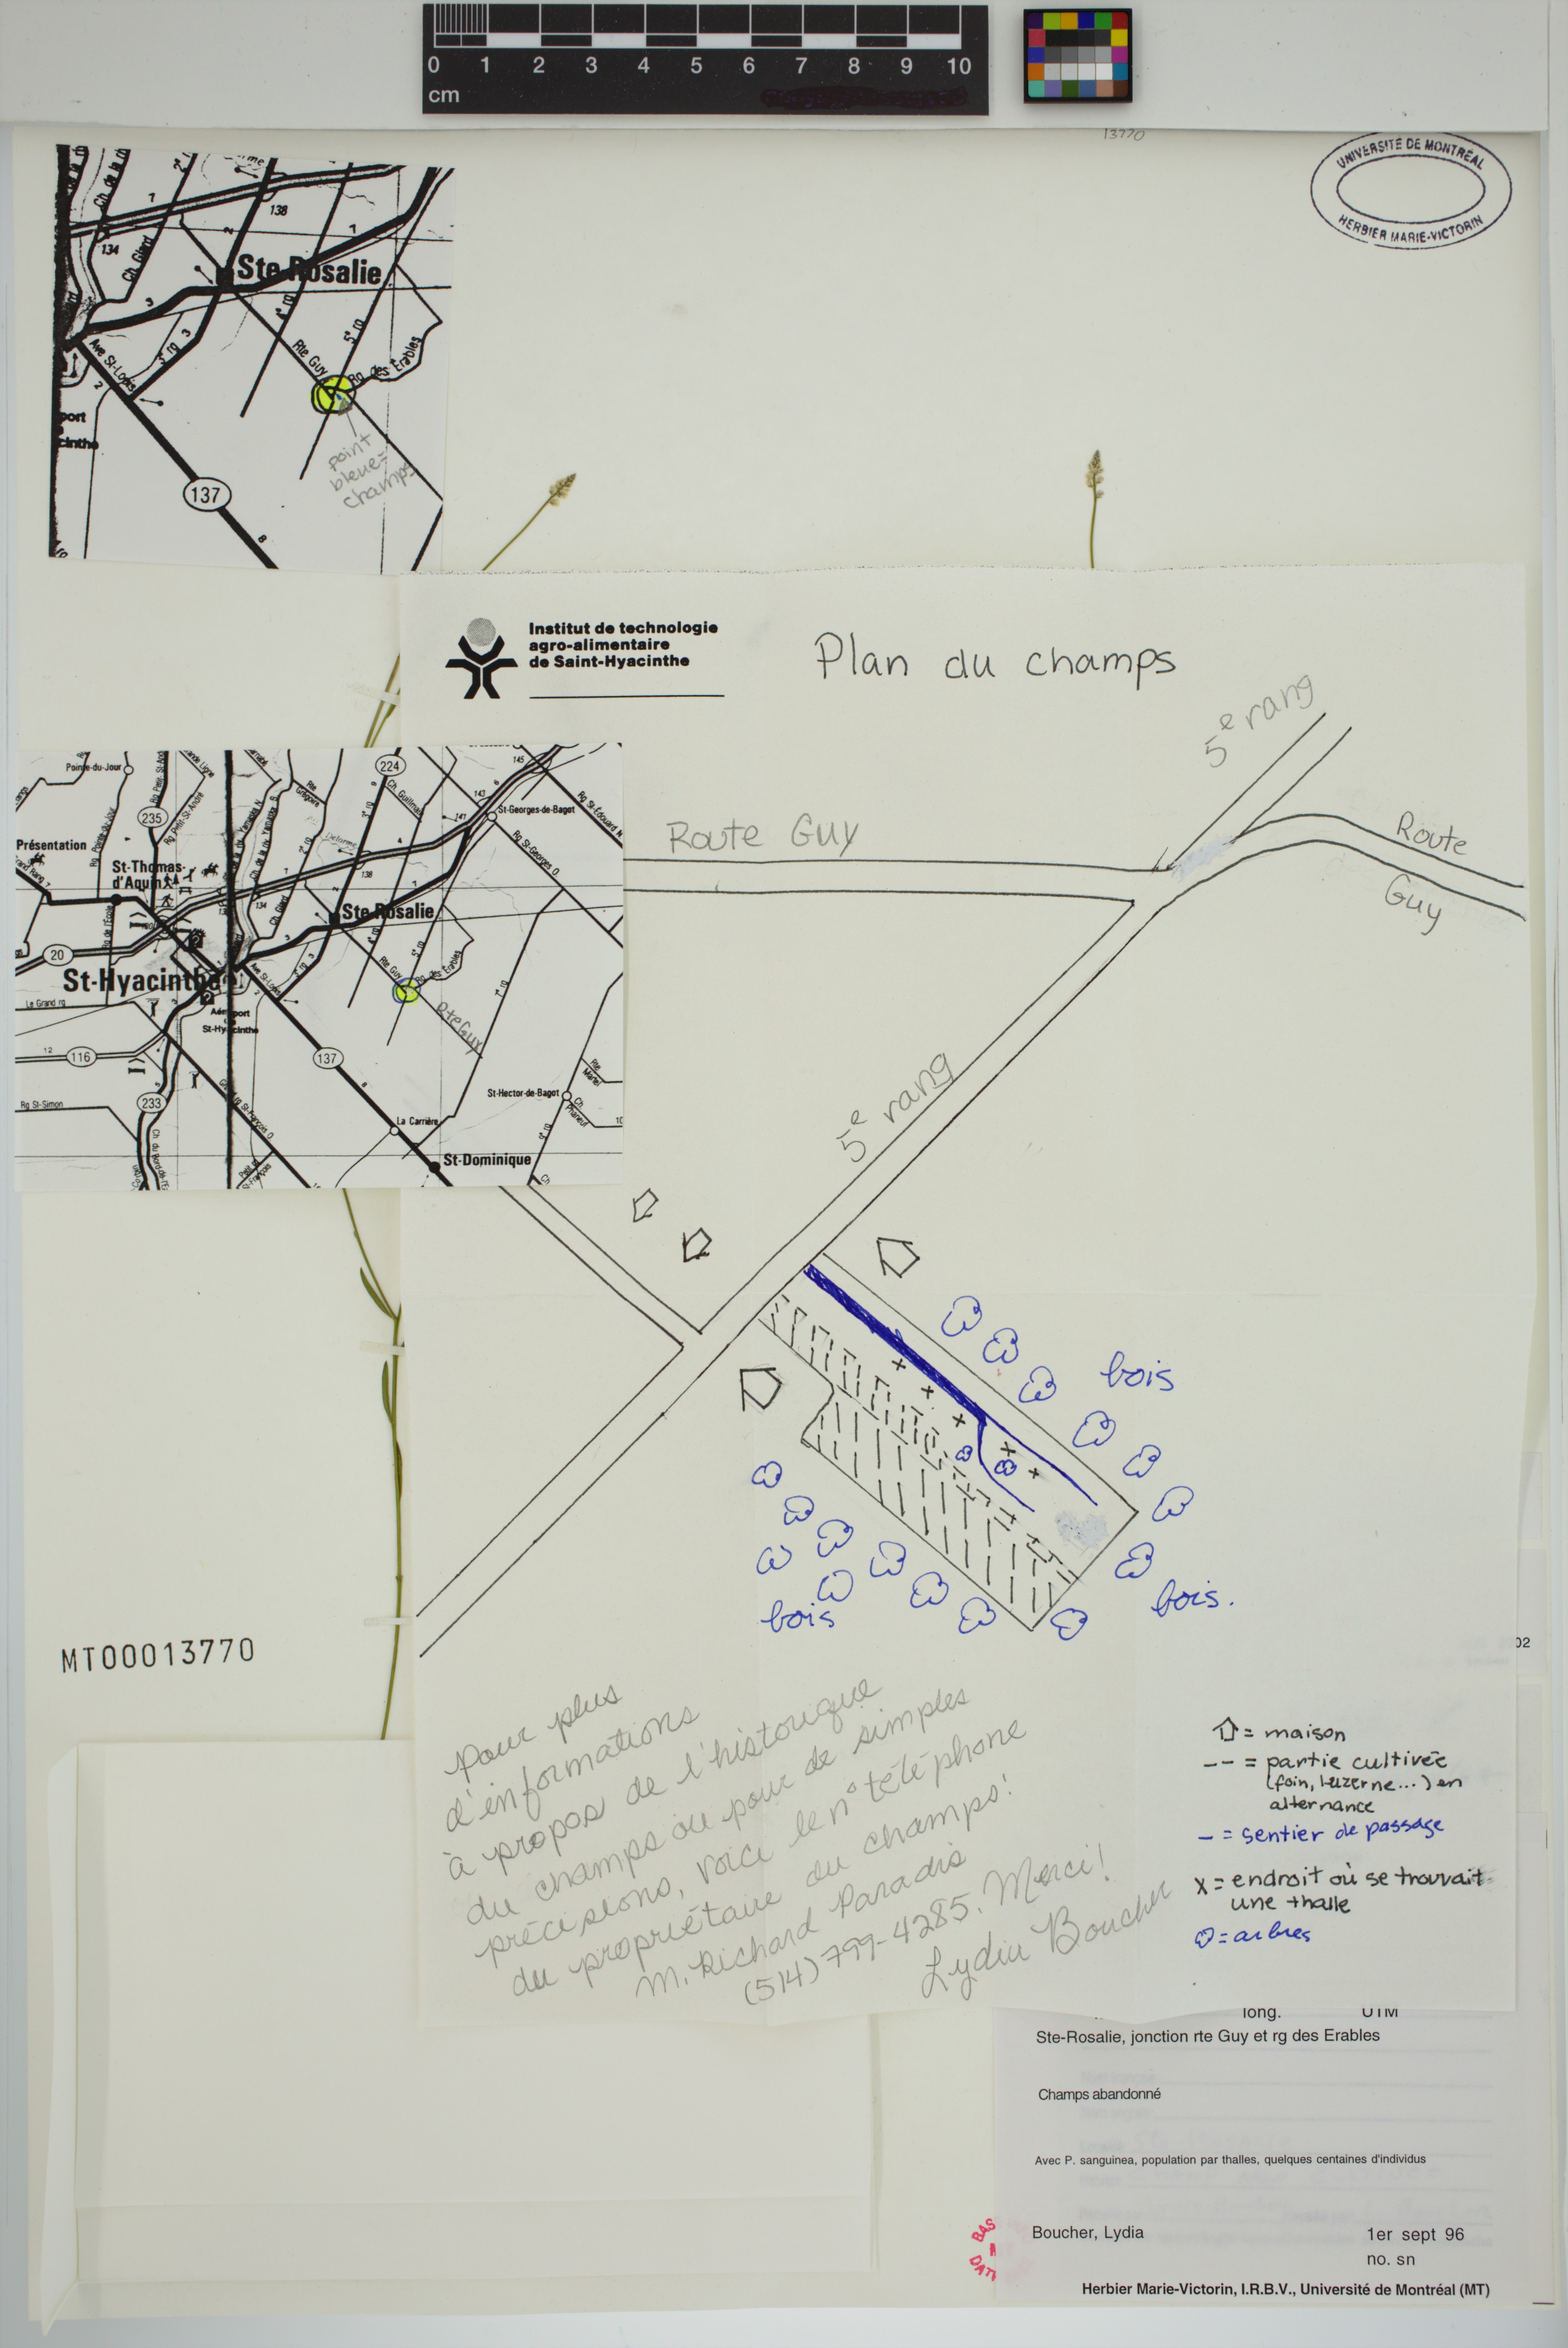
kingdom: Plantae
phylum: Tracheophyta
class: Magnoliopsida
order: Fabales
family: Polygalaceae
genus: Polygala
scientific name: Polygala ambigua
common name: Alternate milkwort
